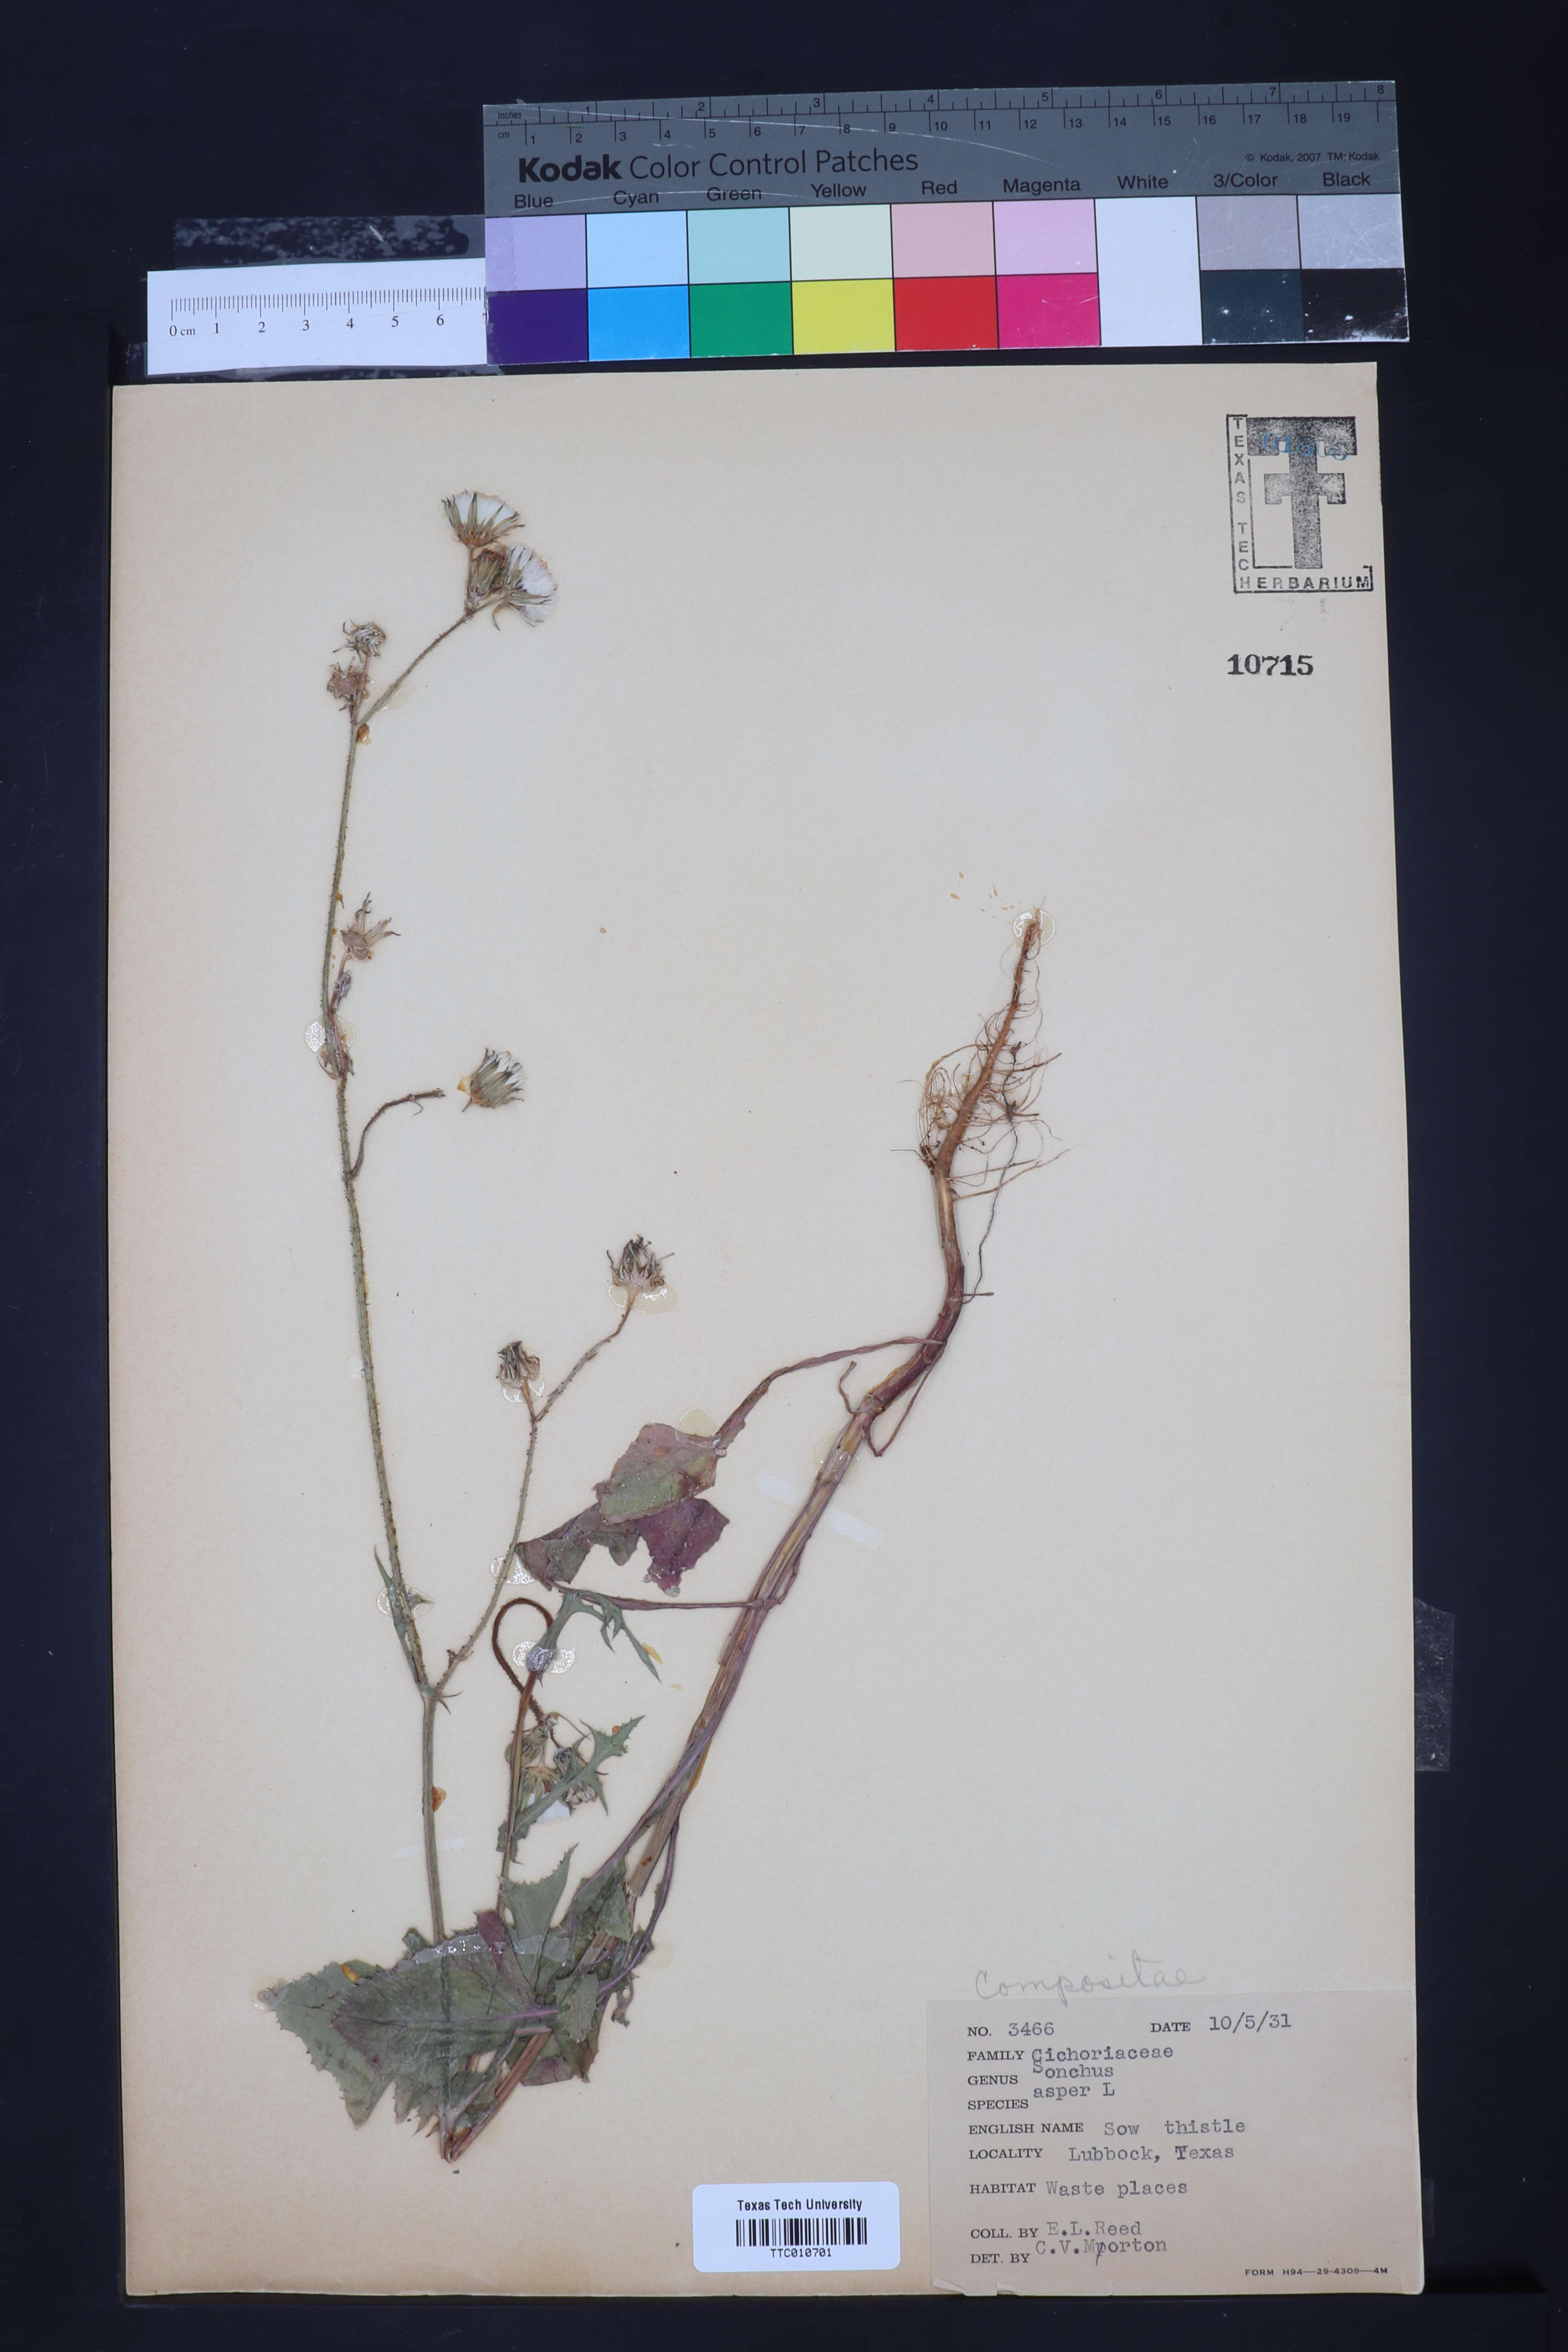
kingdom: Plantae
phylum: Tracheophyta
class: Magnoliopsida
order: Asterales
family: Asteraceae
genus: Sonchus
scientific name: Sonchus asper
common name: Prickly sow-thistle
